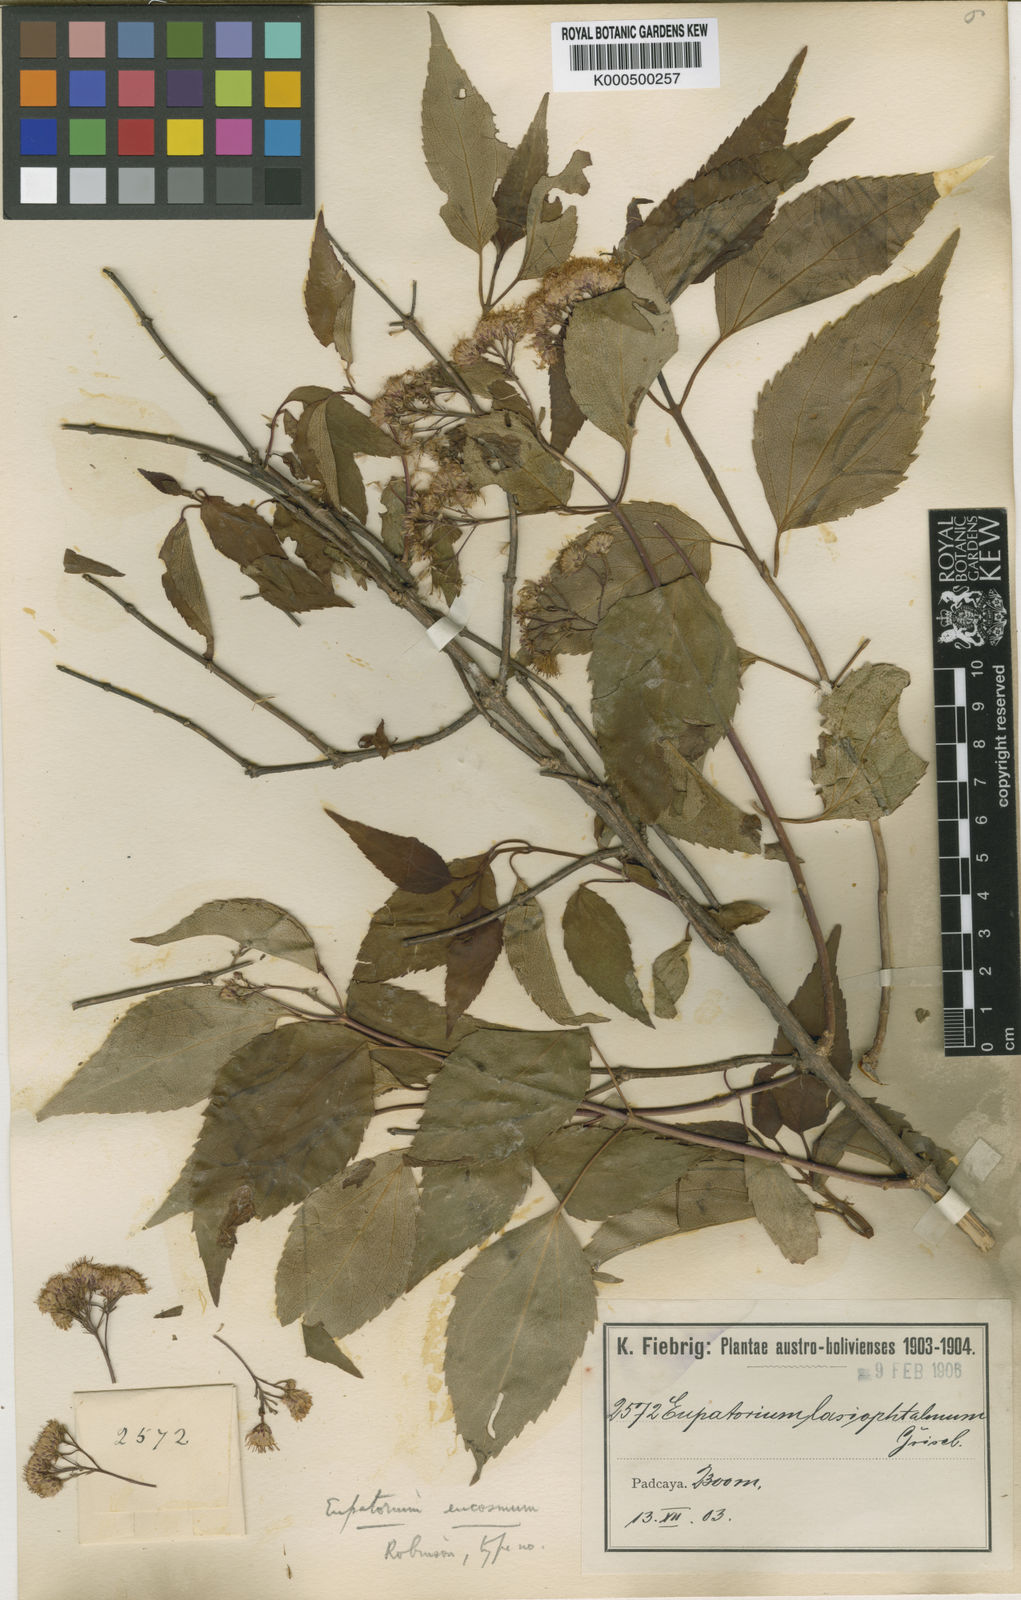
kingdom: Plantae
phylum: Tracheophyta
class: Magnoliopsida
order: Asterales
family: Asteraceae
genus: Kaunia
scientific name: Kaunia saltensis
